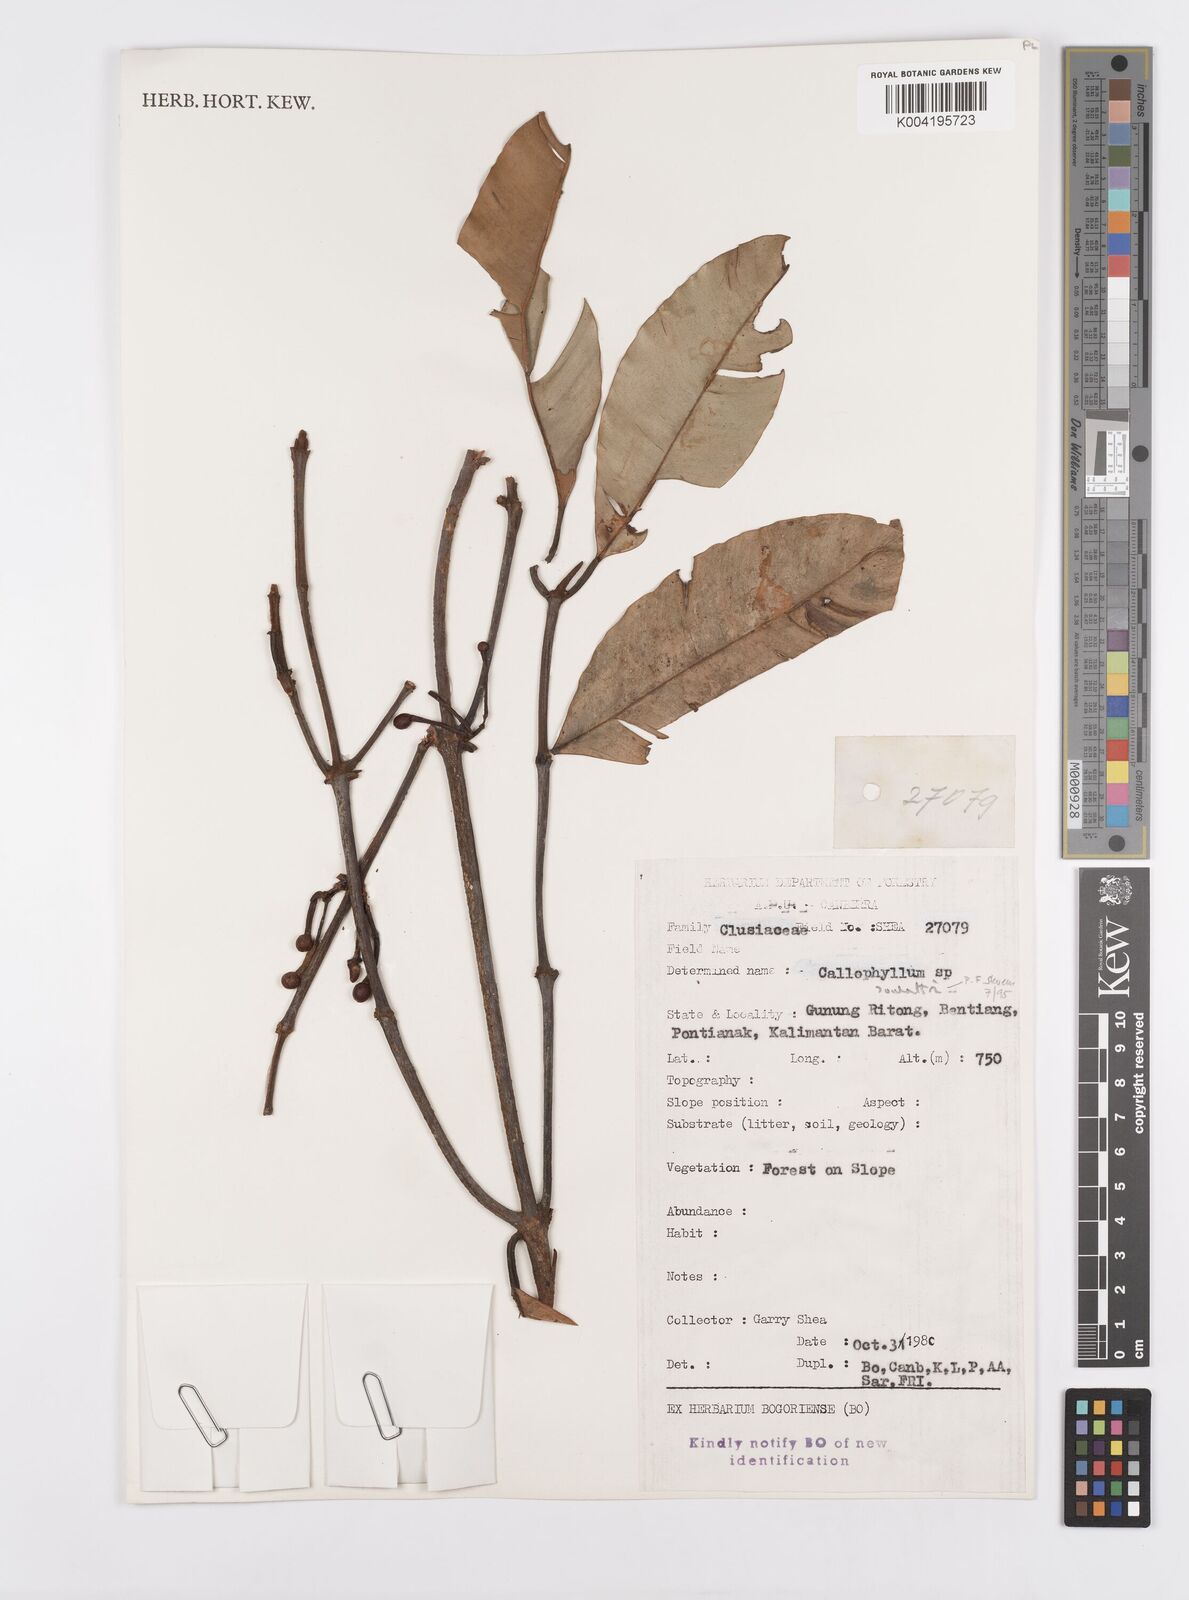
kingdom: Plantae
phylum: Tracheophyta
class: Magnoliopsida
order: Malpighiales
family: Calophyllaceae
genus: Calophyllum
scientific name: Calophyllum soulattri
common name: Bitangoor boonot
